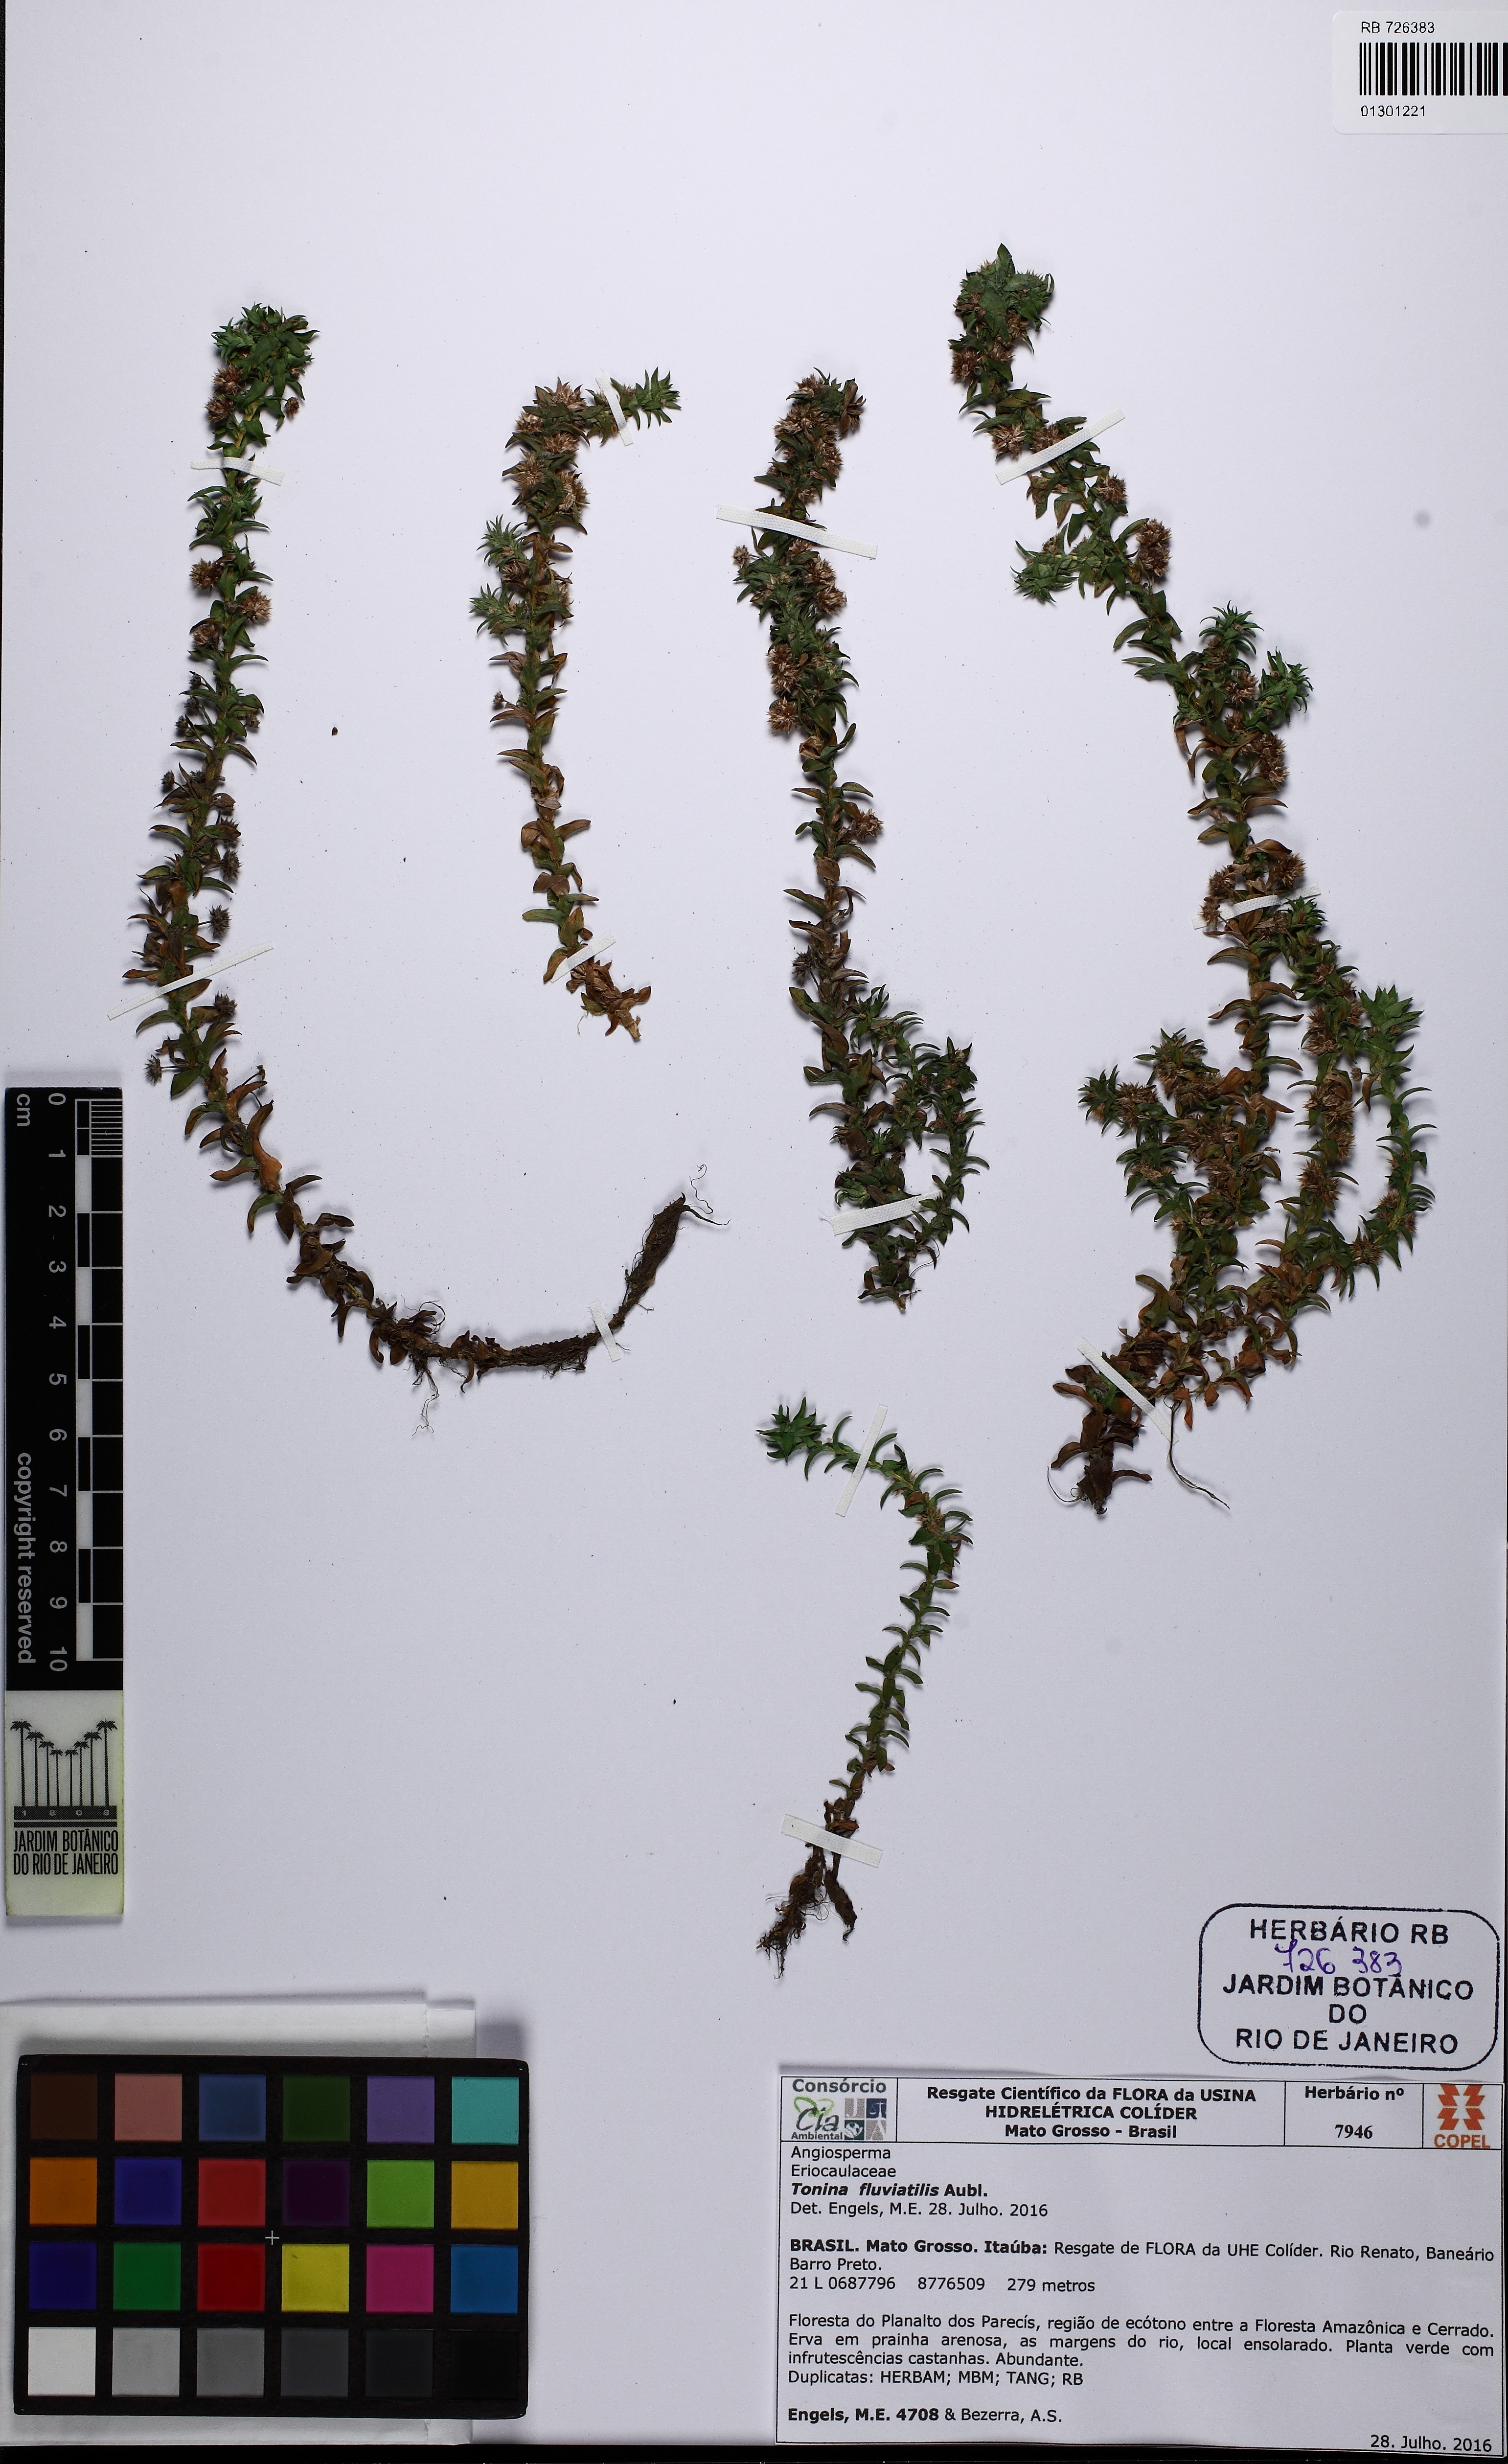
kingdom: Plantae
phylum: Tracheophyta
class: Liliopsida
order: Poales
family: Eriocaulaceae
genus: Paepalanthus
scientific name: Paepalanthus fluviatilis
